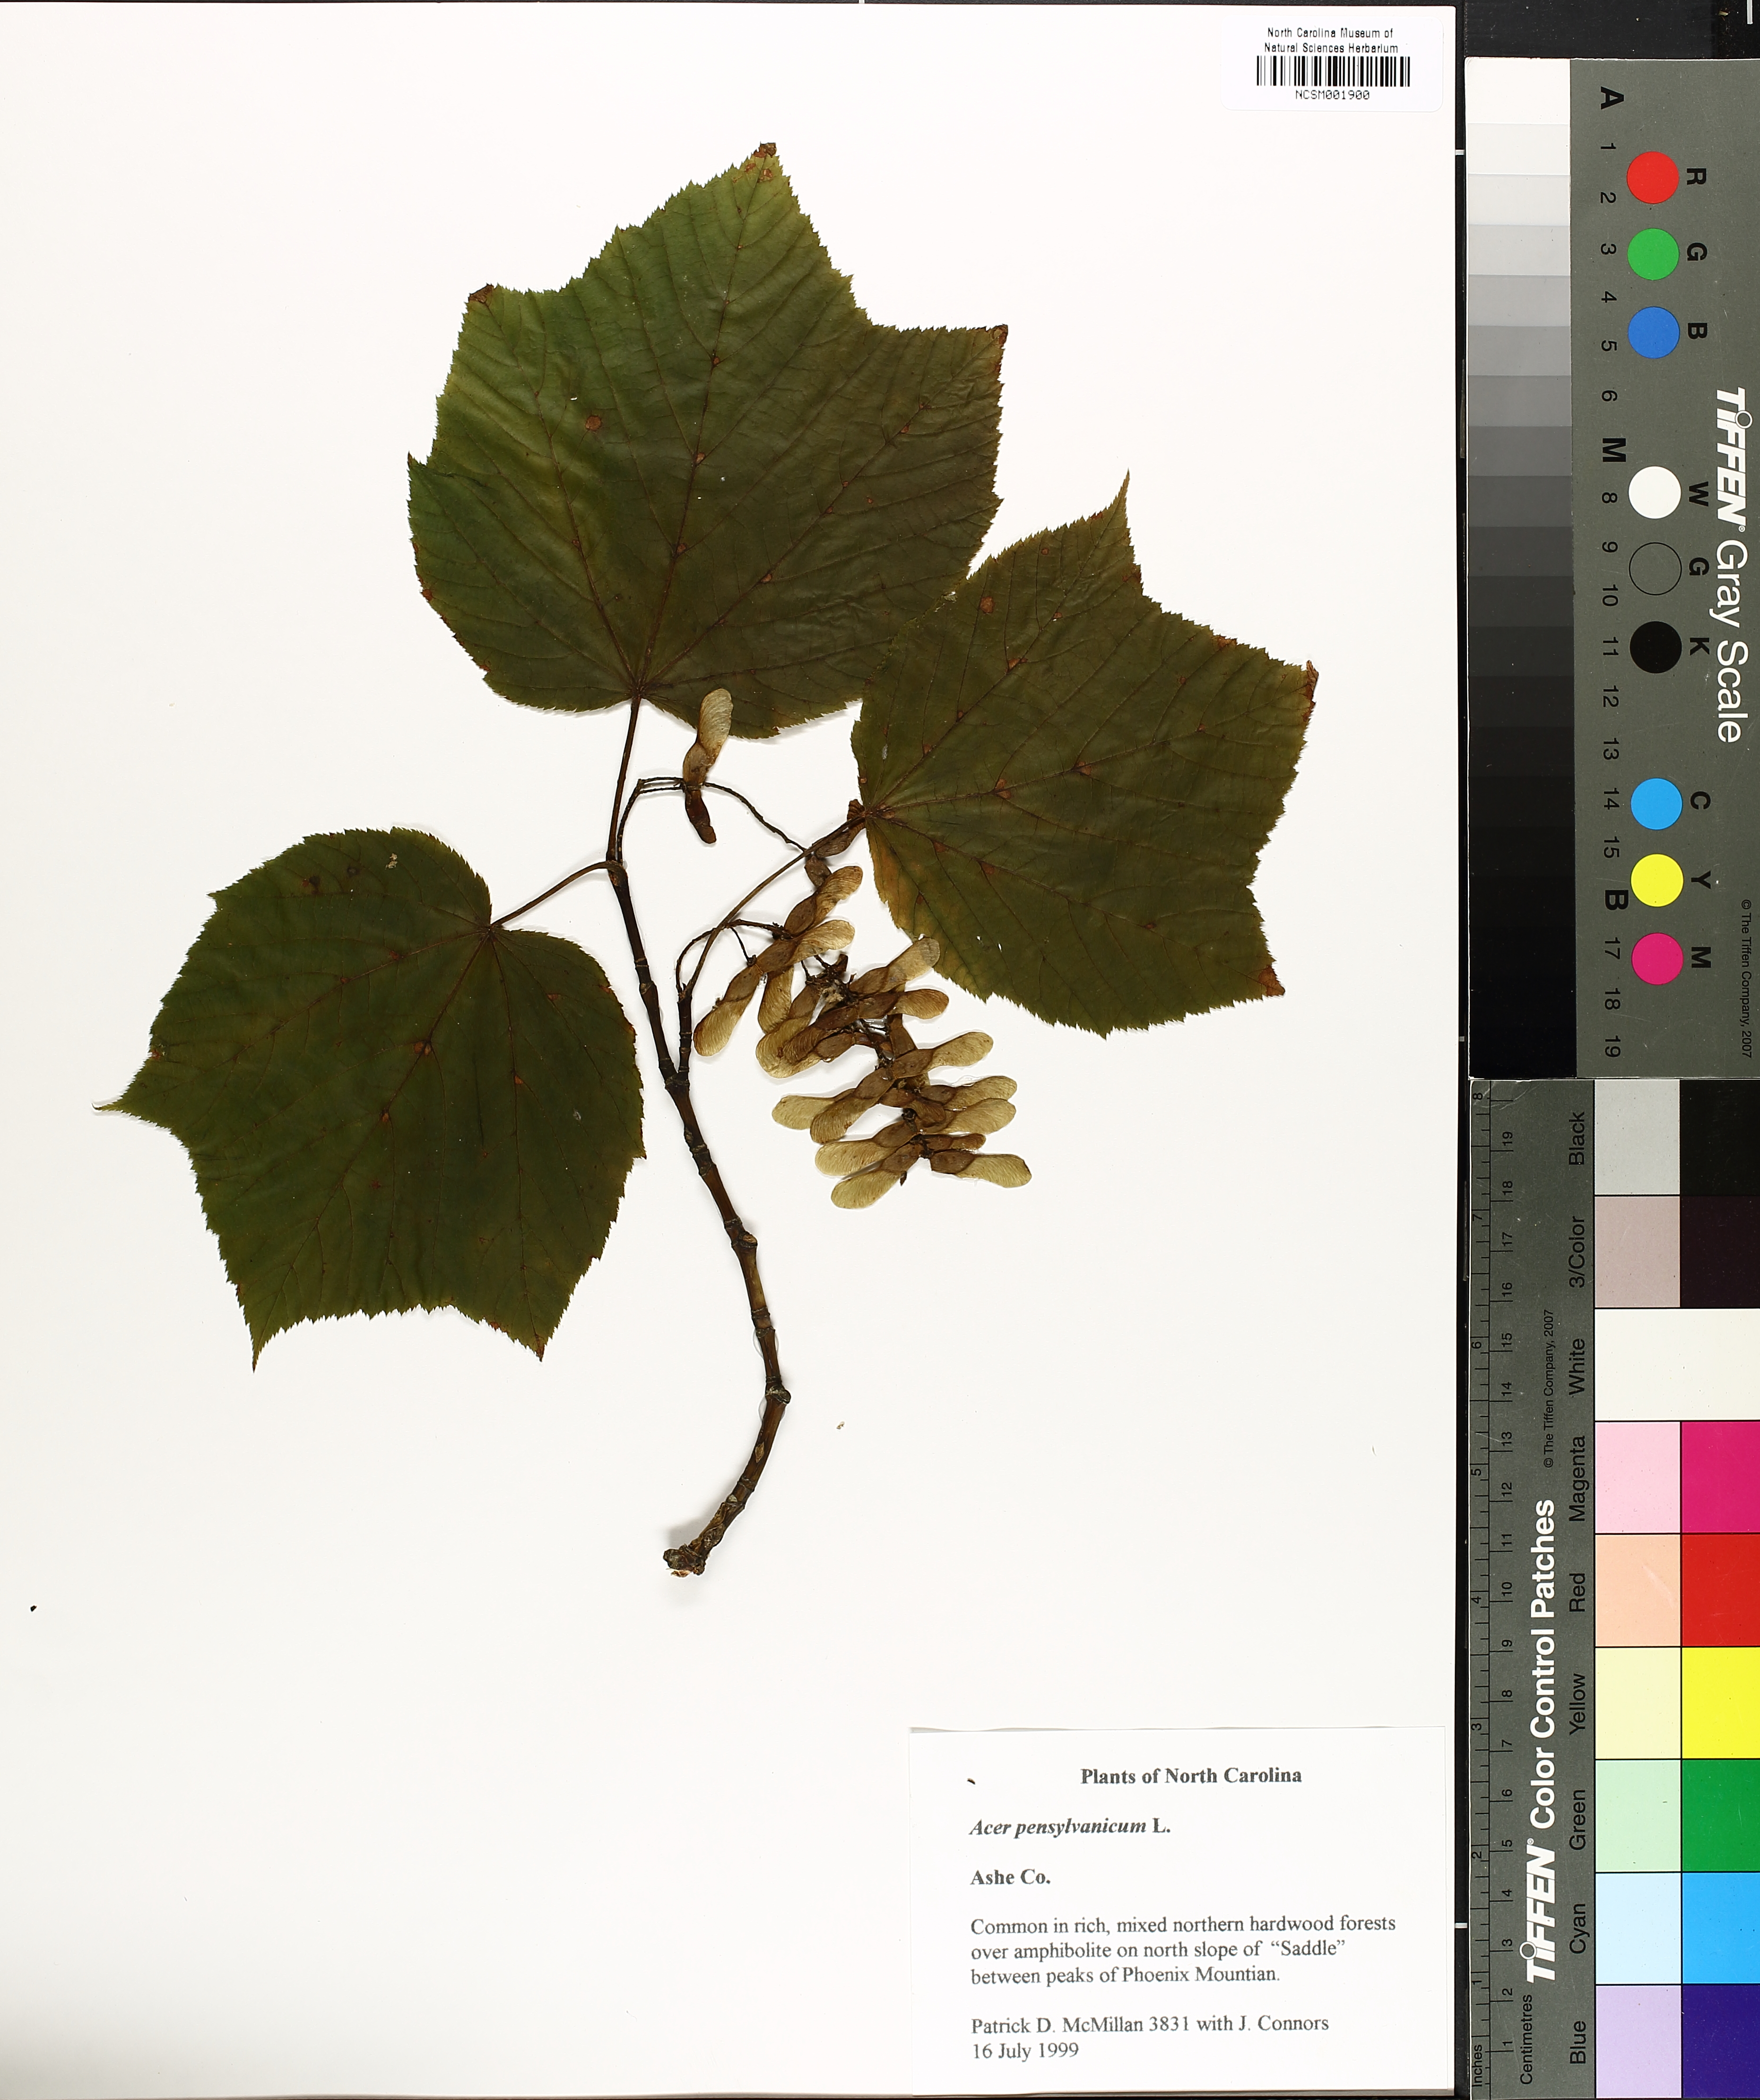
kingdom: Plantae
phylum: Tracheophyta
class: Magnoliopsida
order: Sapindales
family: Sapindaceae
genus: Acer
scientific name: Acer pensylvanicum
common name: Moosewood
